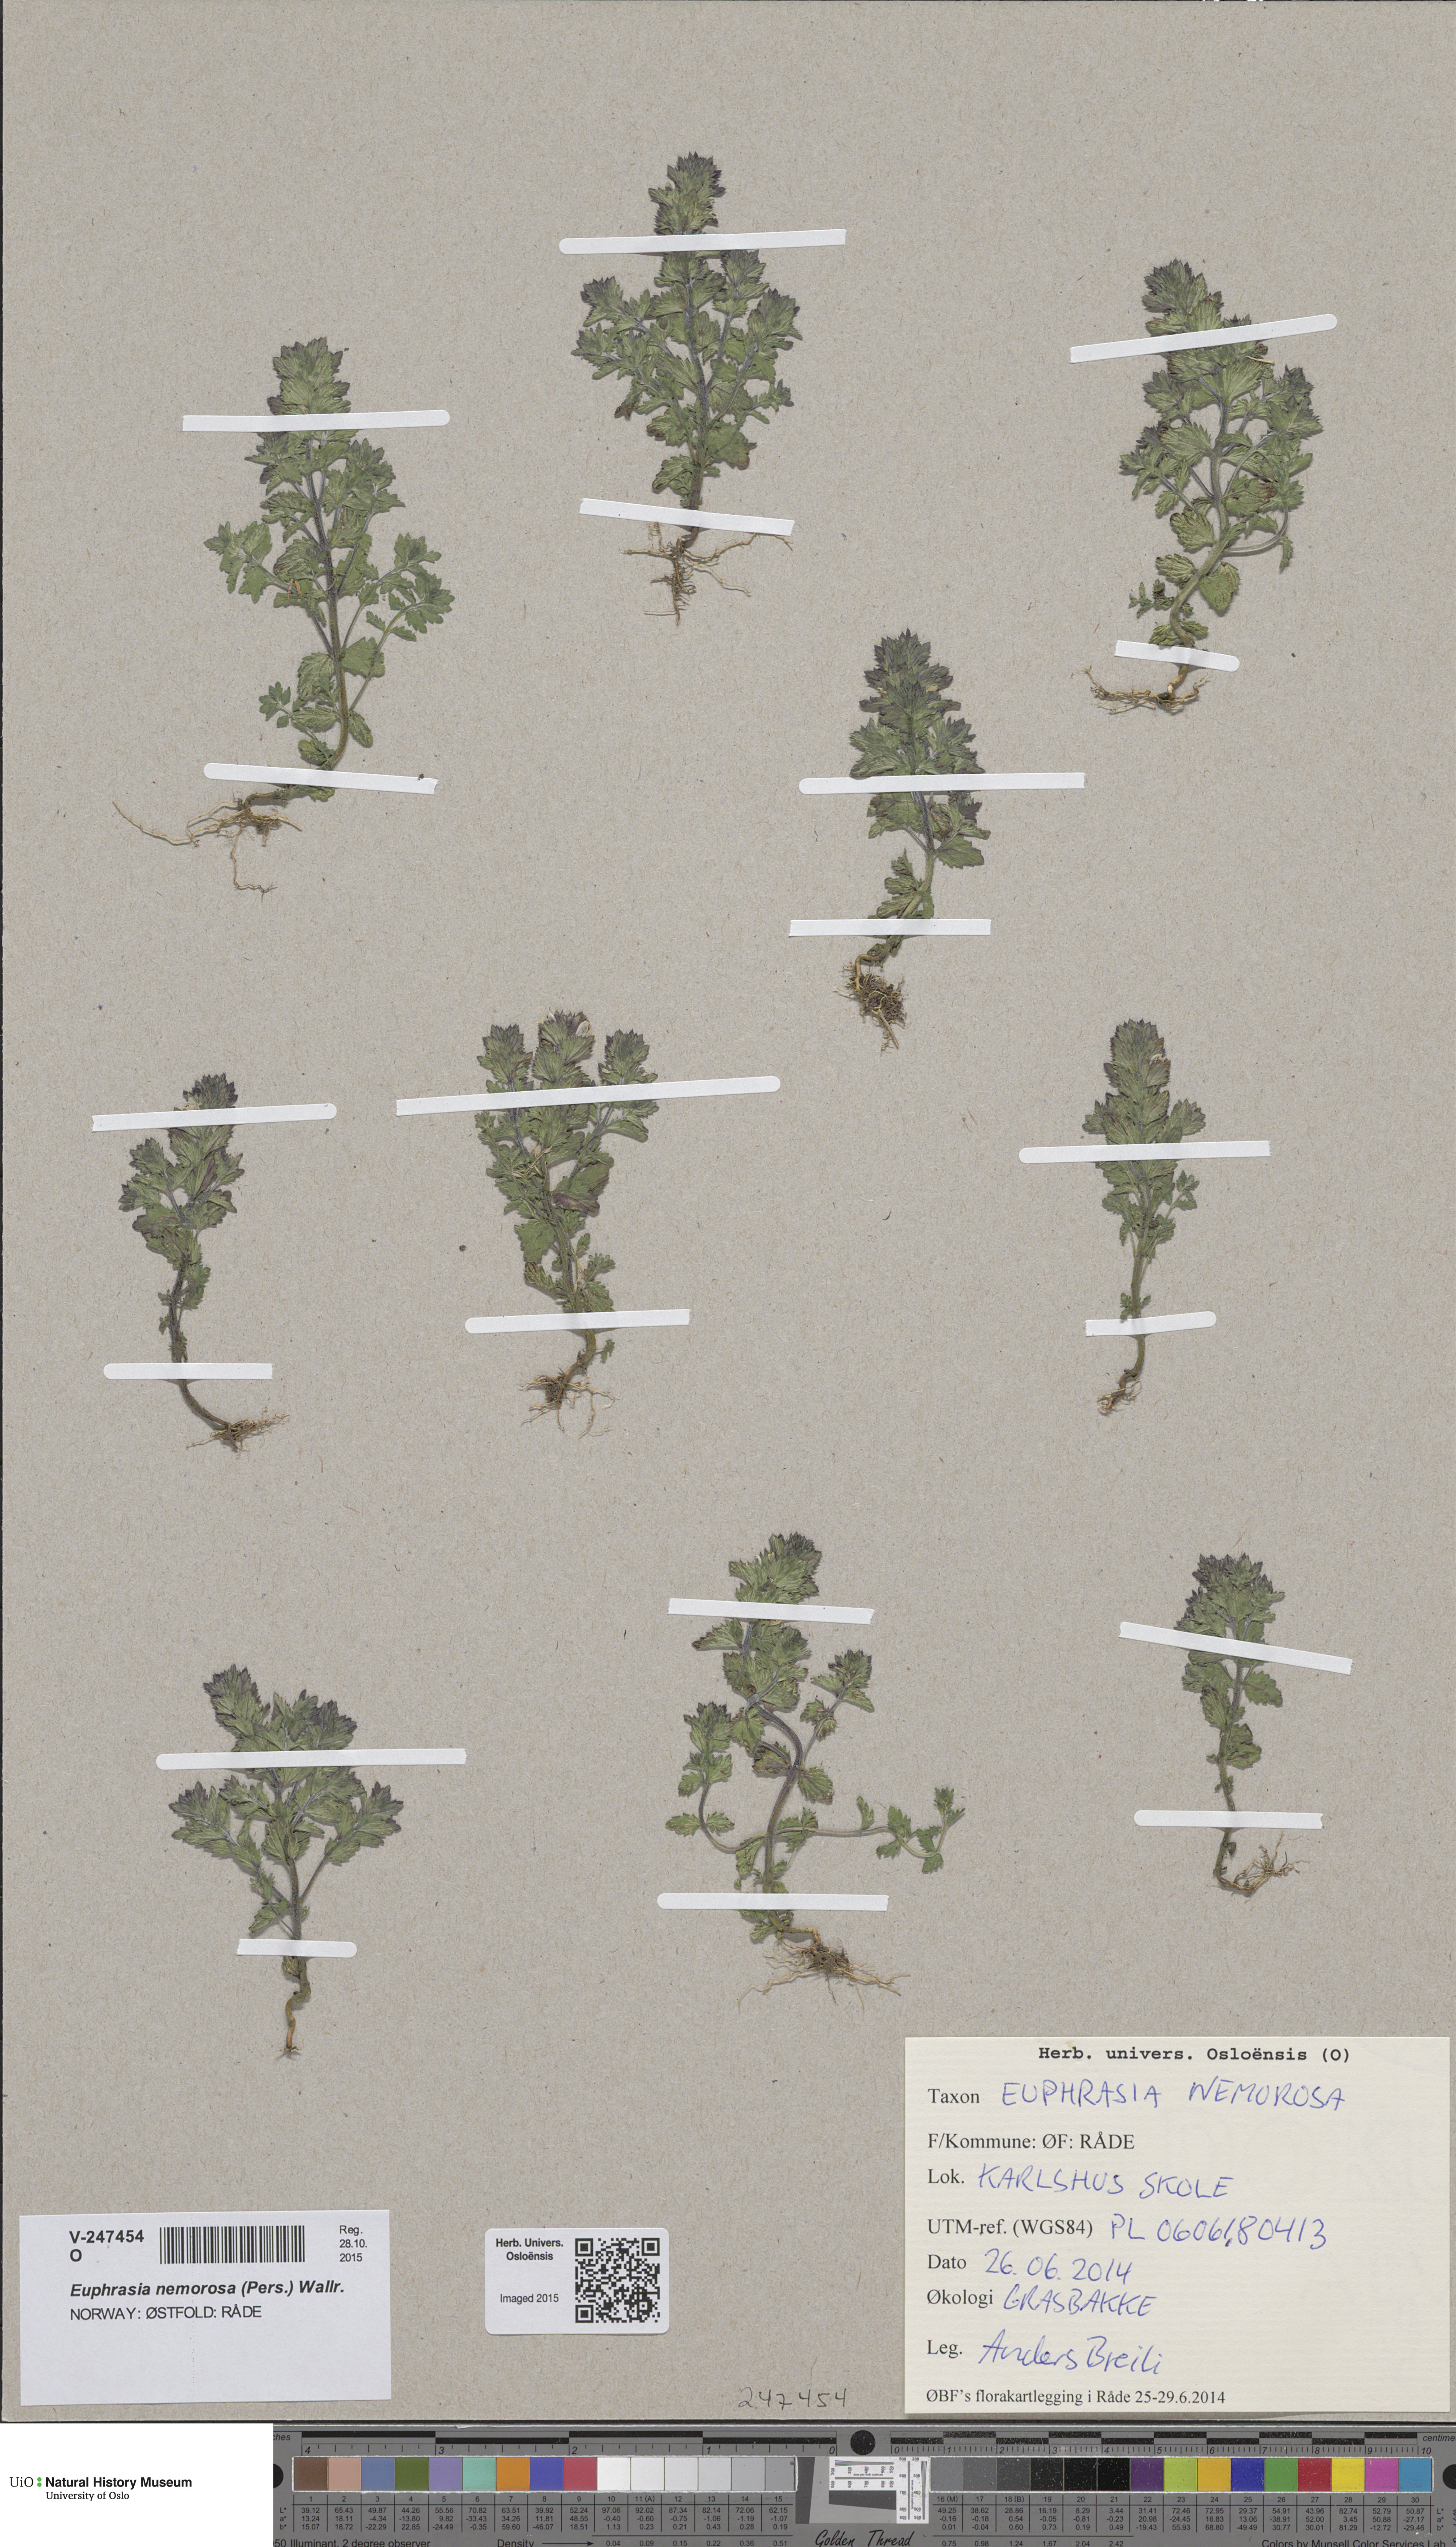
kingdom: Plantae
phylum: Tracheophyta
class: Magnoliopsida
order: Lamiales
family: Orobanchaceae
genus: Euphrasia
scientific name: Euphrasia nemorosa
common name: Common eyebright
